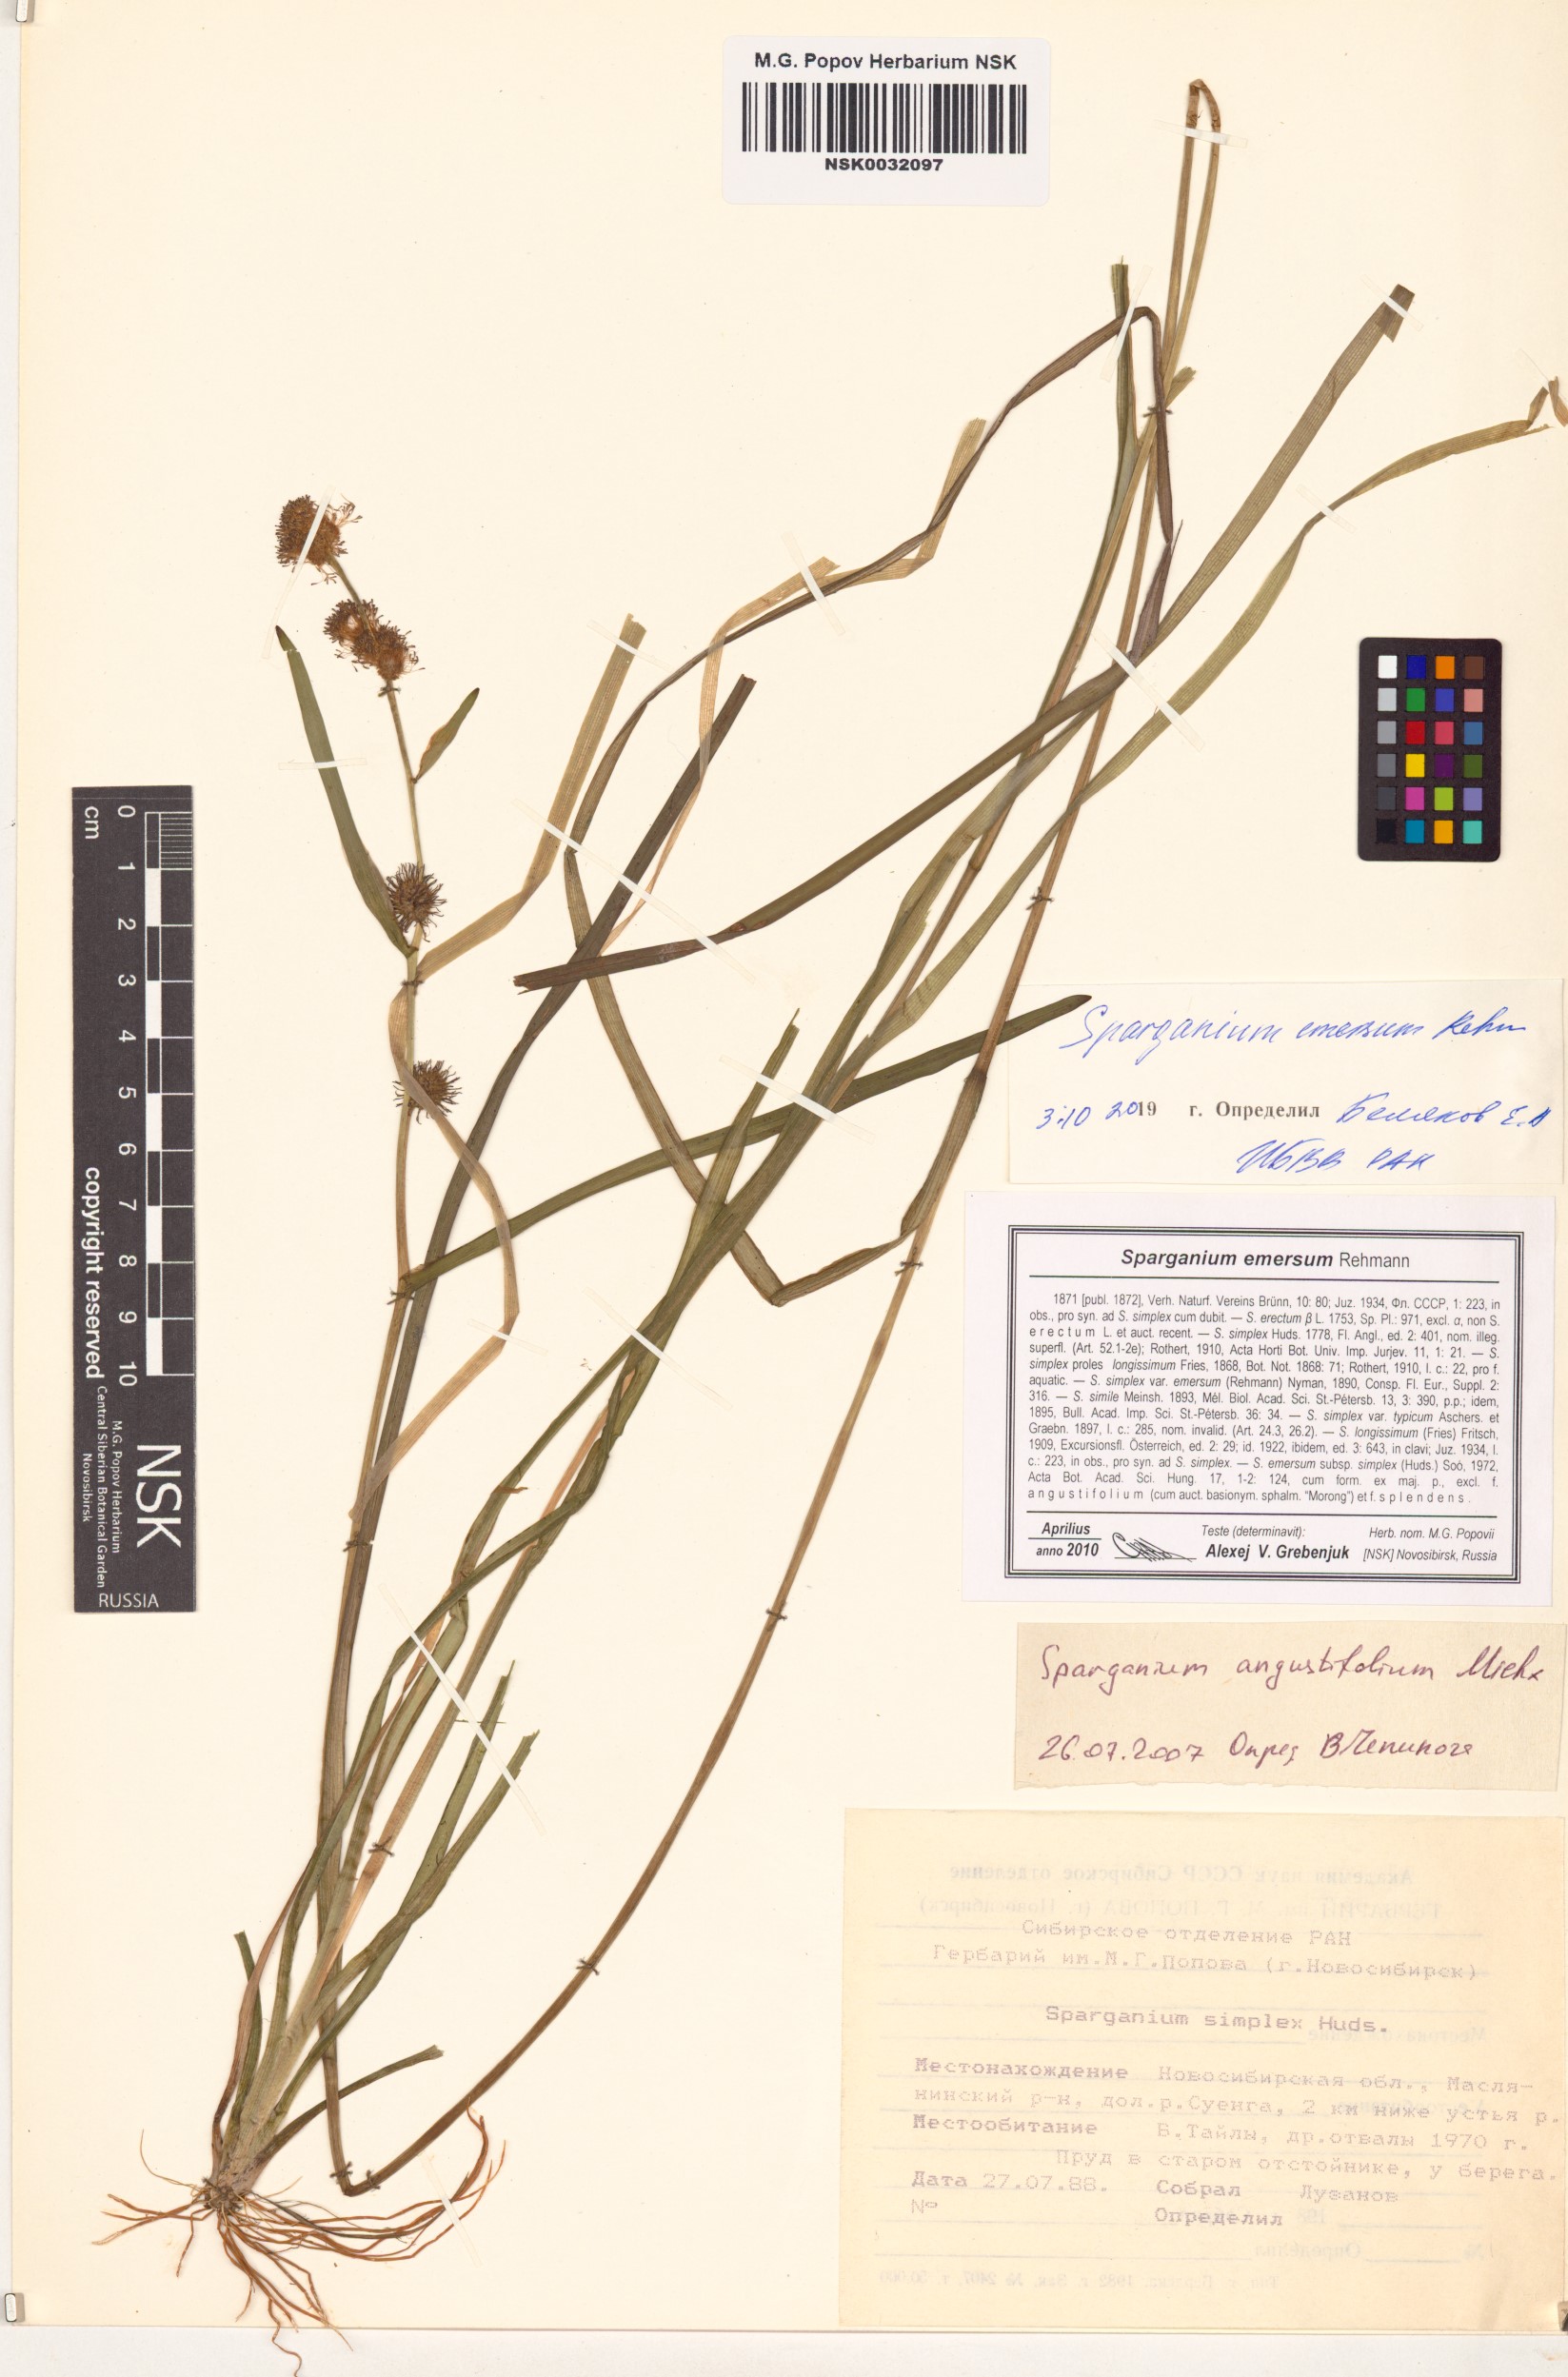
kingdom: Plantae
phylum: Tracheophyta
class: Liliopsida
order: Poales
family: Typhaceae
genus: Sparganium
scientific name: Sparganium emersum
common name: Unbranched bur-reed
